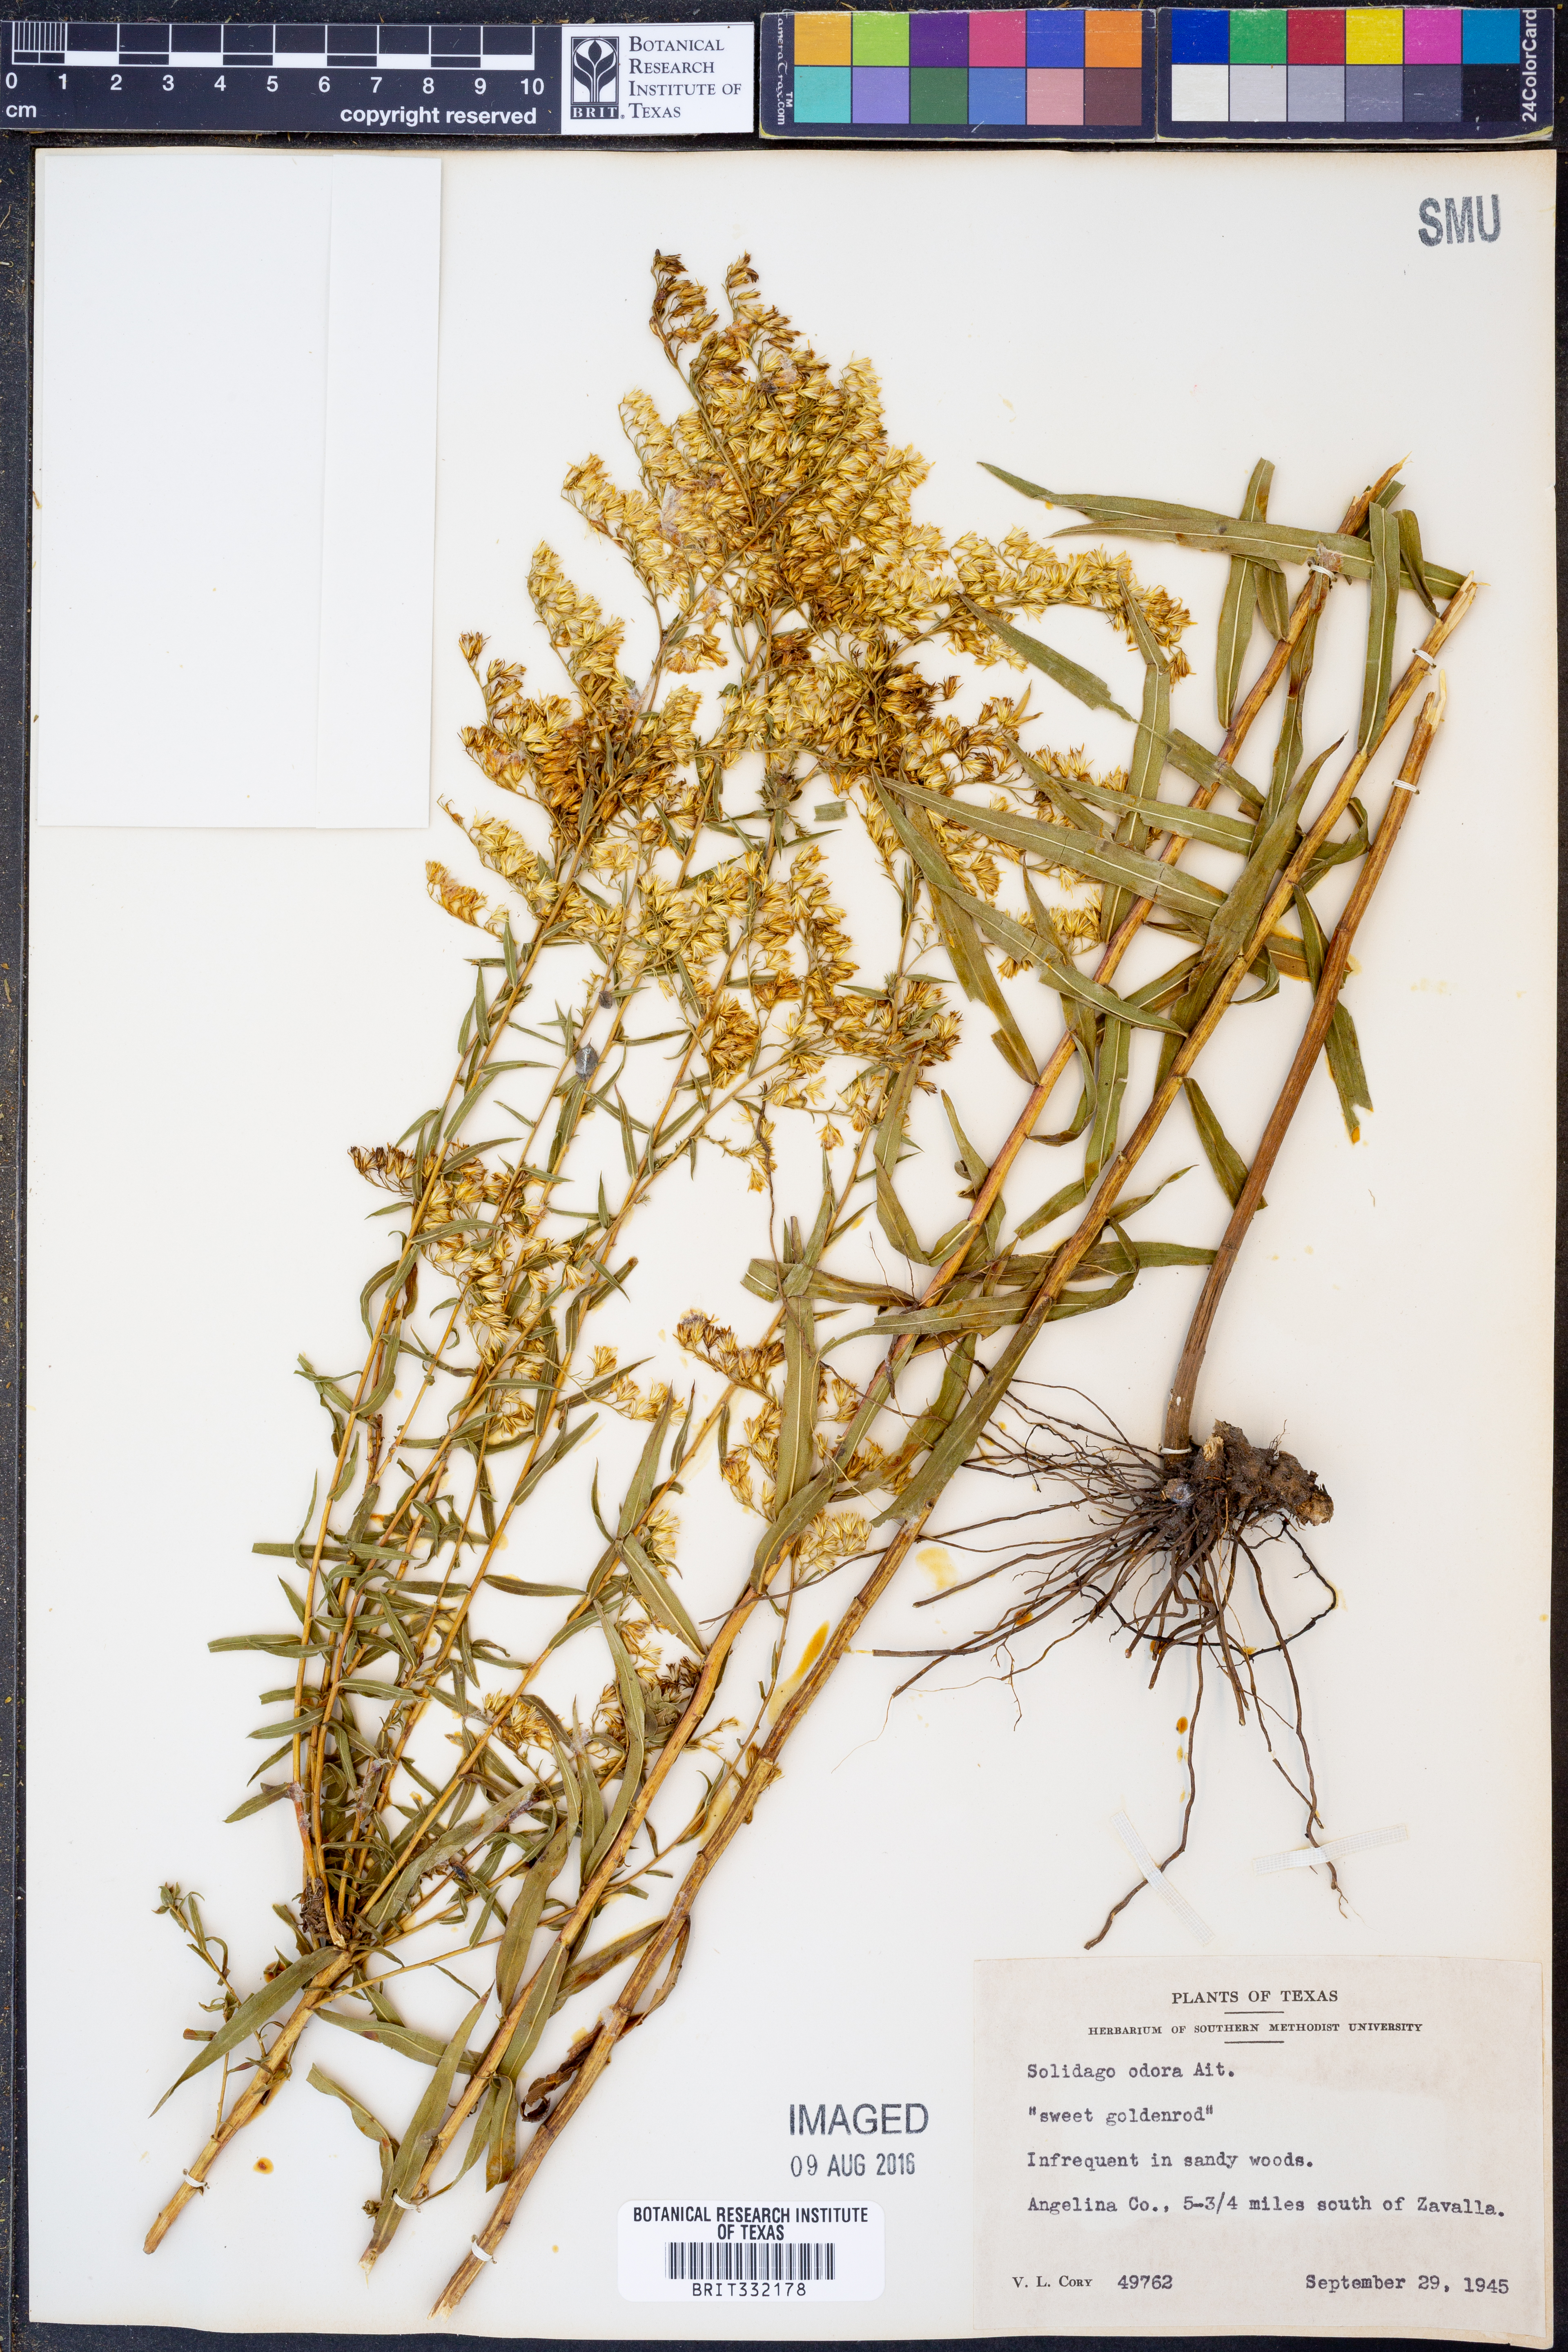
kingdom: Plantae
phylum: Tracheophyta
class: Magnoliopsida
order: Asterales
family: Asteraceae
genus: Solidago
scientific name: Solidago rugosa
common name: Rough-stemmed goldenrod
